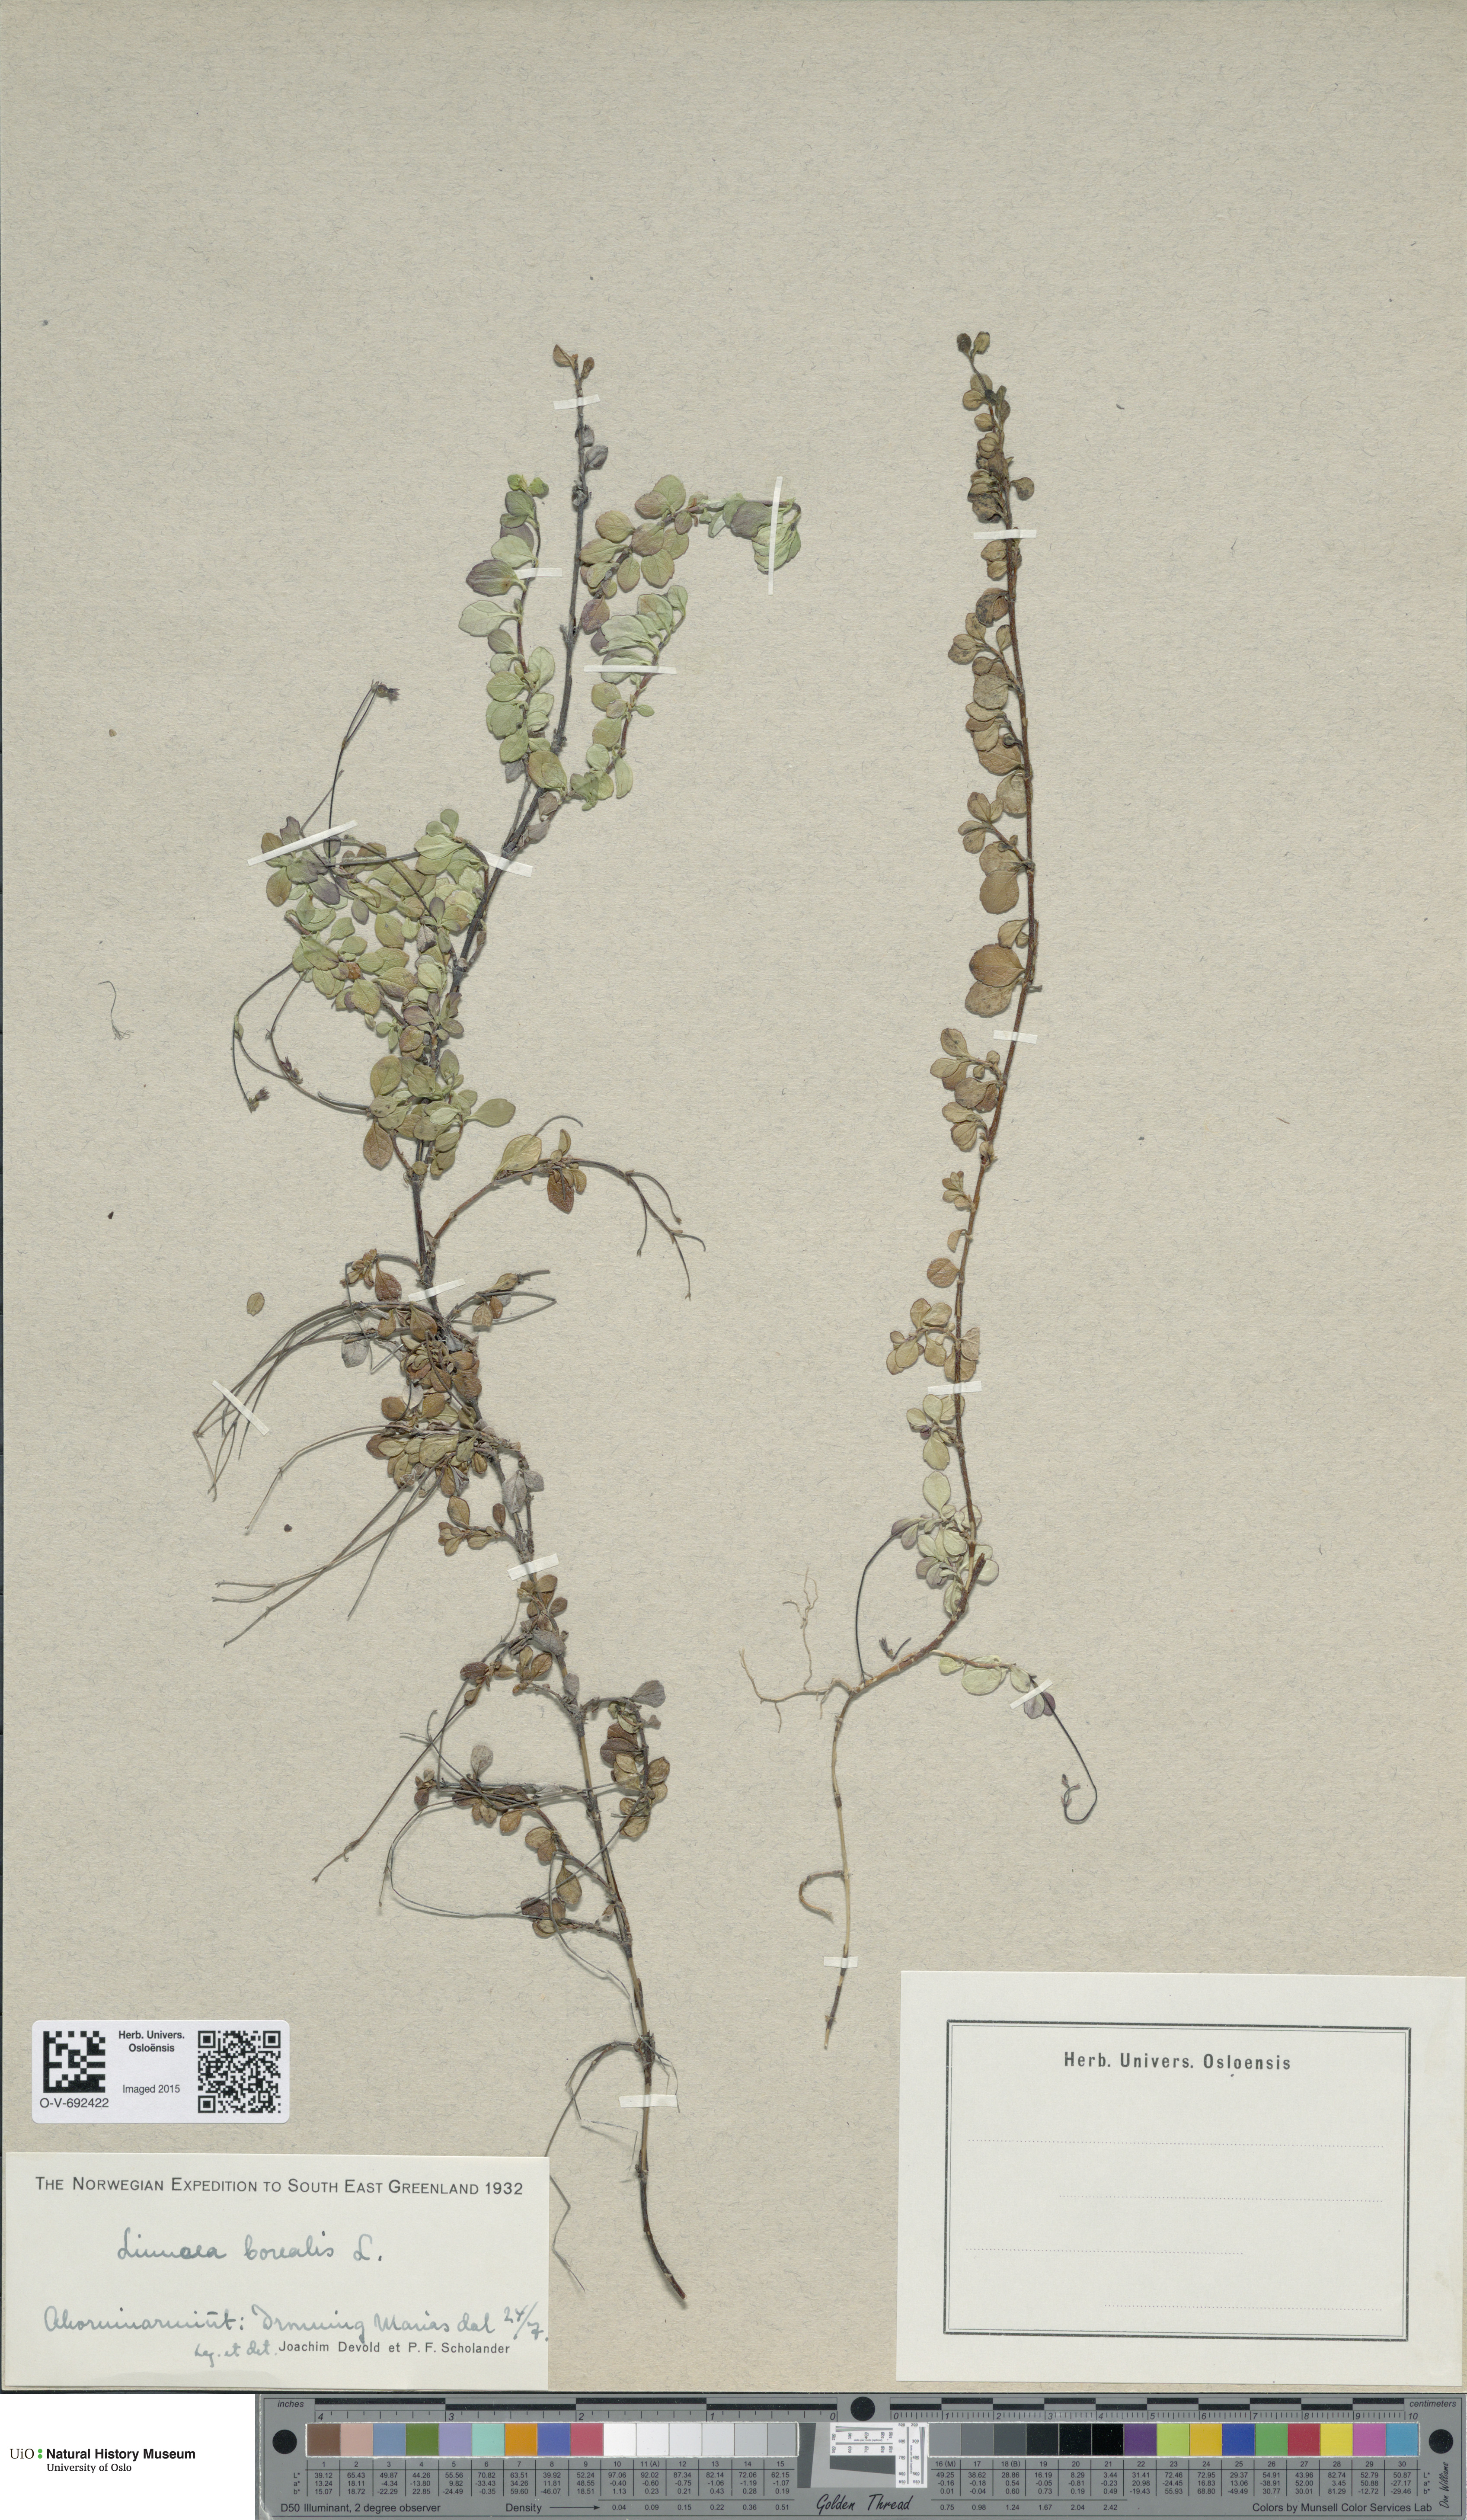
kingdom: Plantae
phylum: Tracheophyta
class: Magnoliopsida
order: Dipsacales
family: Caprifoliaceae
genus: Linnaea
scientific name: Linnaea borealis
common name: Twinflower
